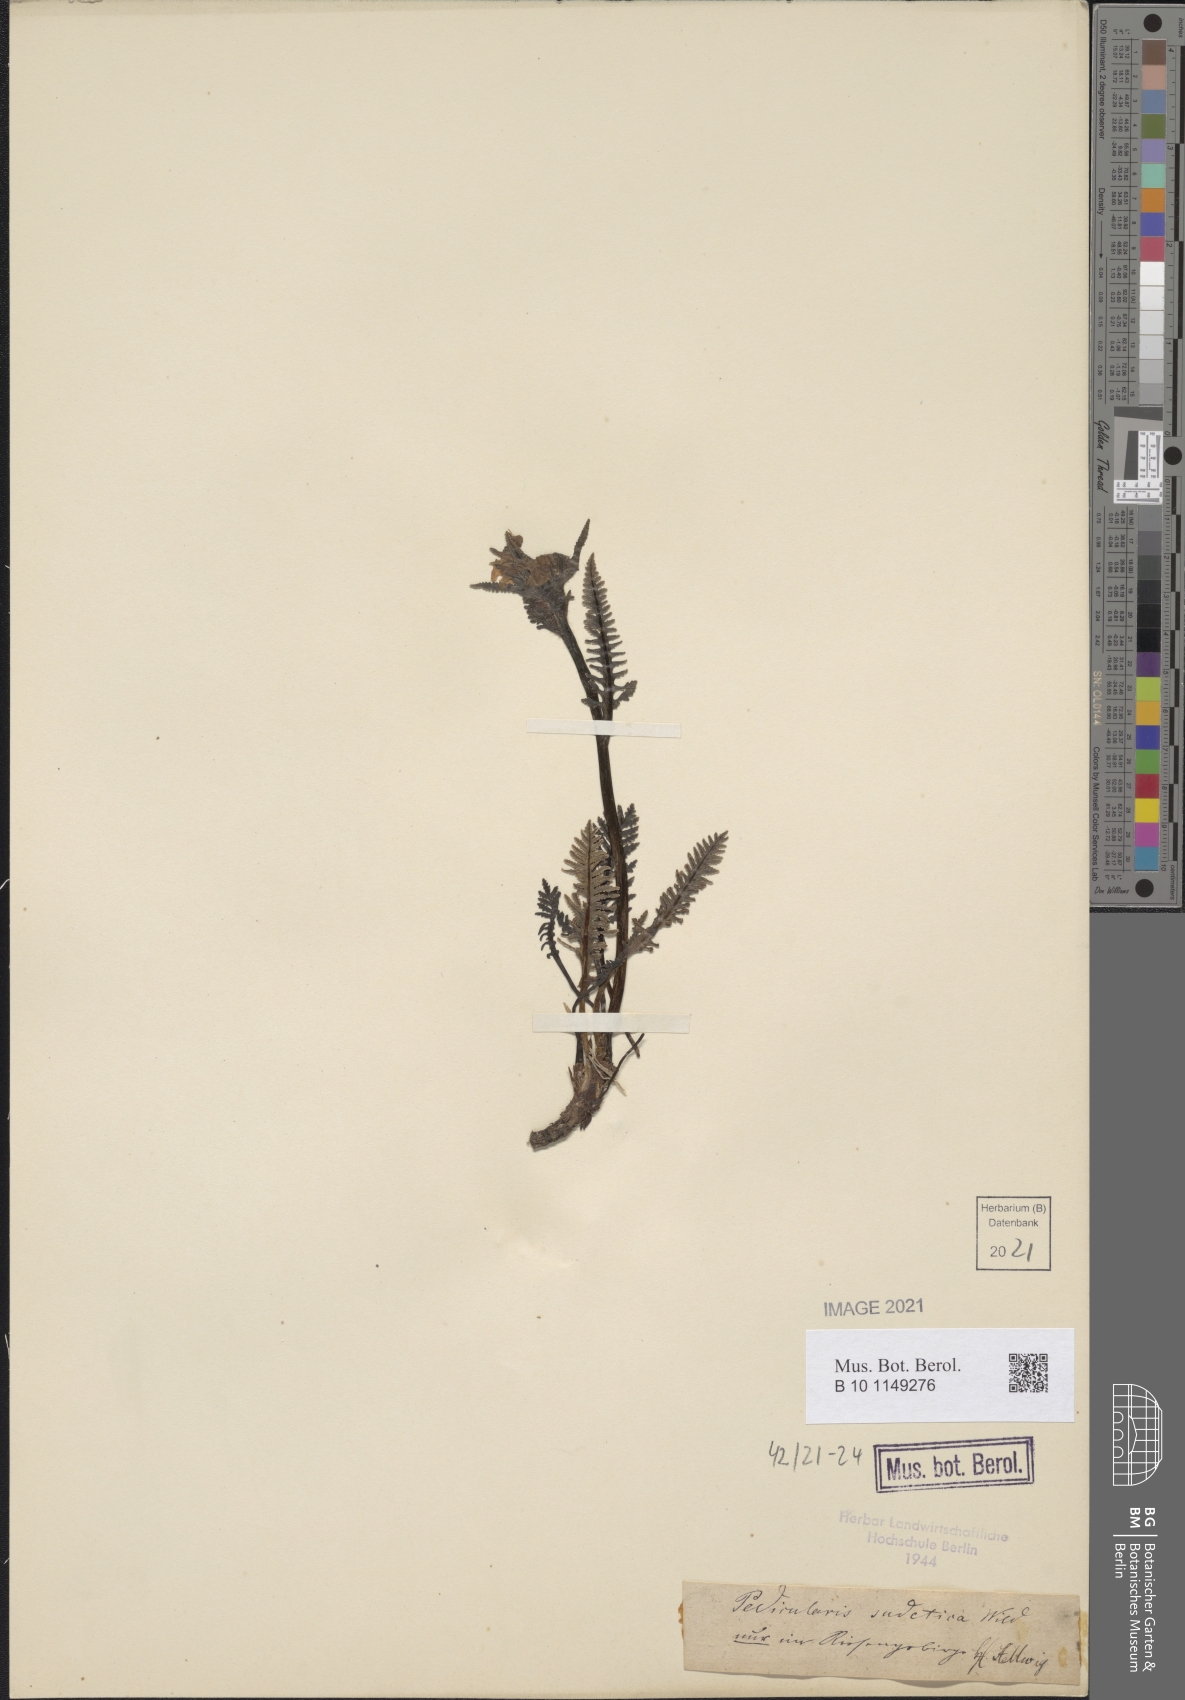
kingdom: Plantae
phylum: Tracheophyta
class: Magnoliopsida
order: Lamiales
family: Orobanchaceae
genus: Pedicularis
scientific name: Pedicularis sudetica
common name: Sudeten lousewort
